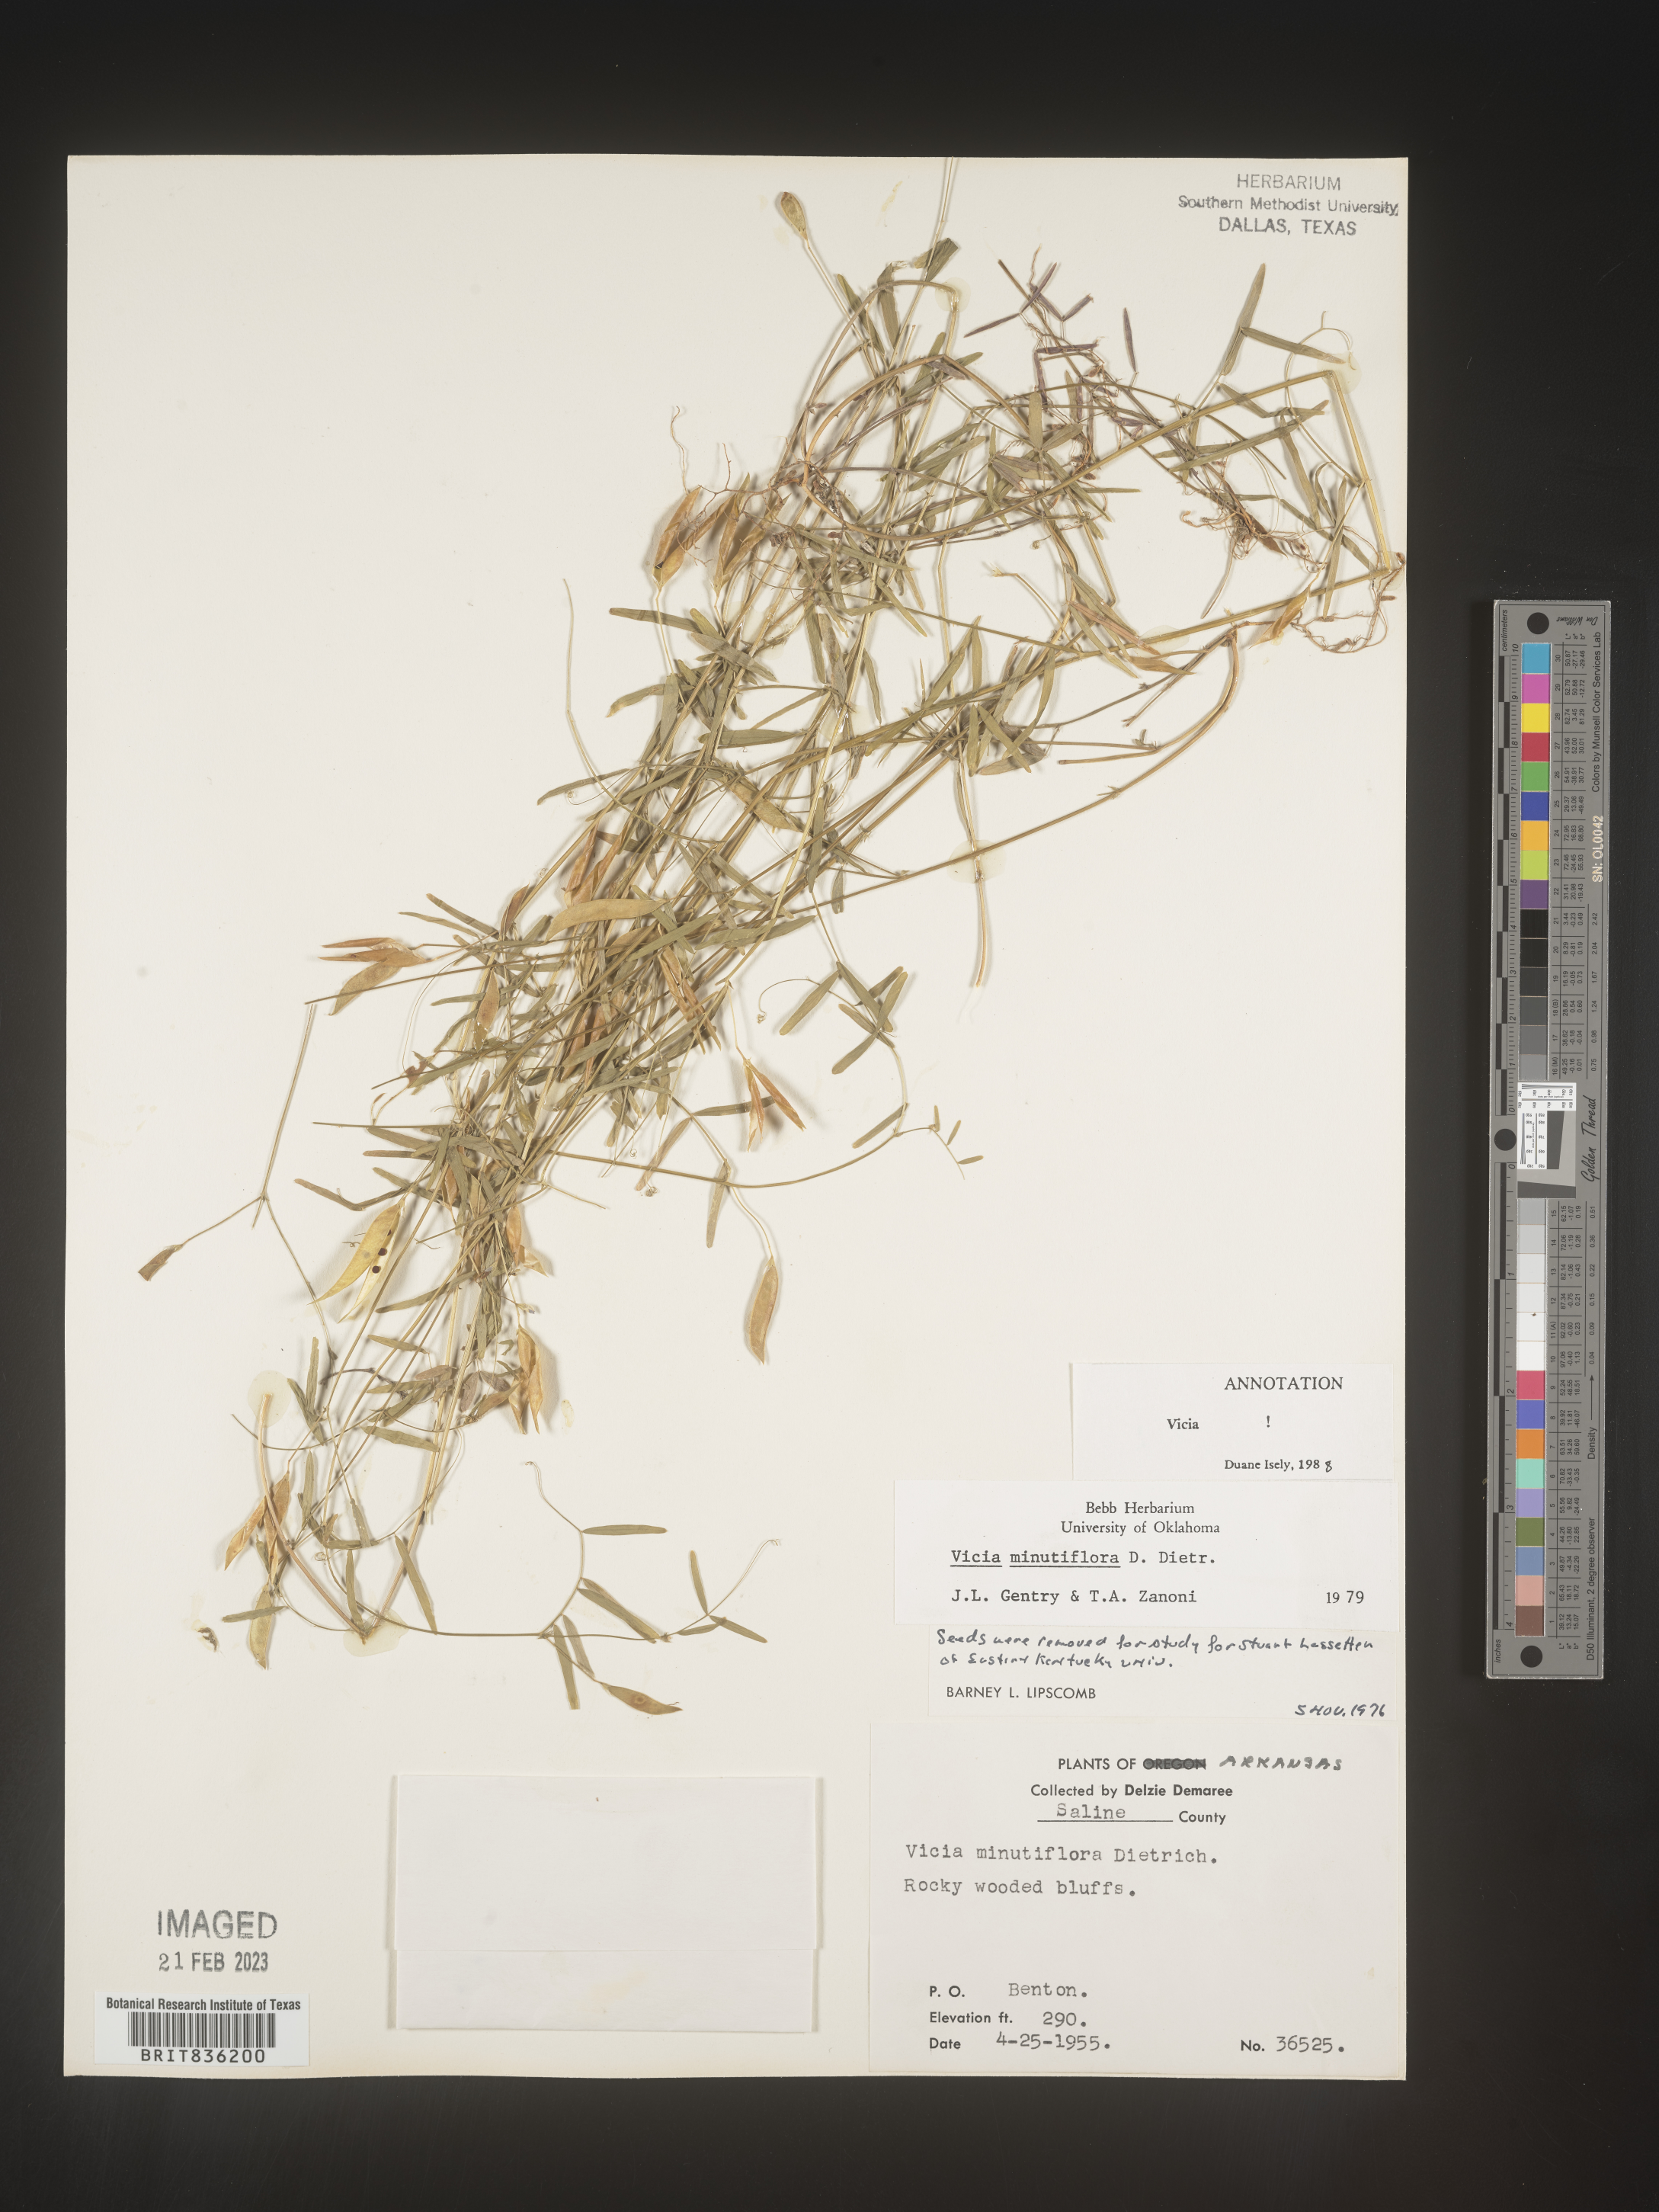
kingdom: Plantae
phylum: Tracheophyta
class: Magnoliopsida
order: Fabales
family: Fabaceae
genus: Vicia
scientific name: Vicia minutiflora
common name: Pygmy-flower vetch
